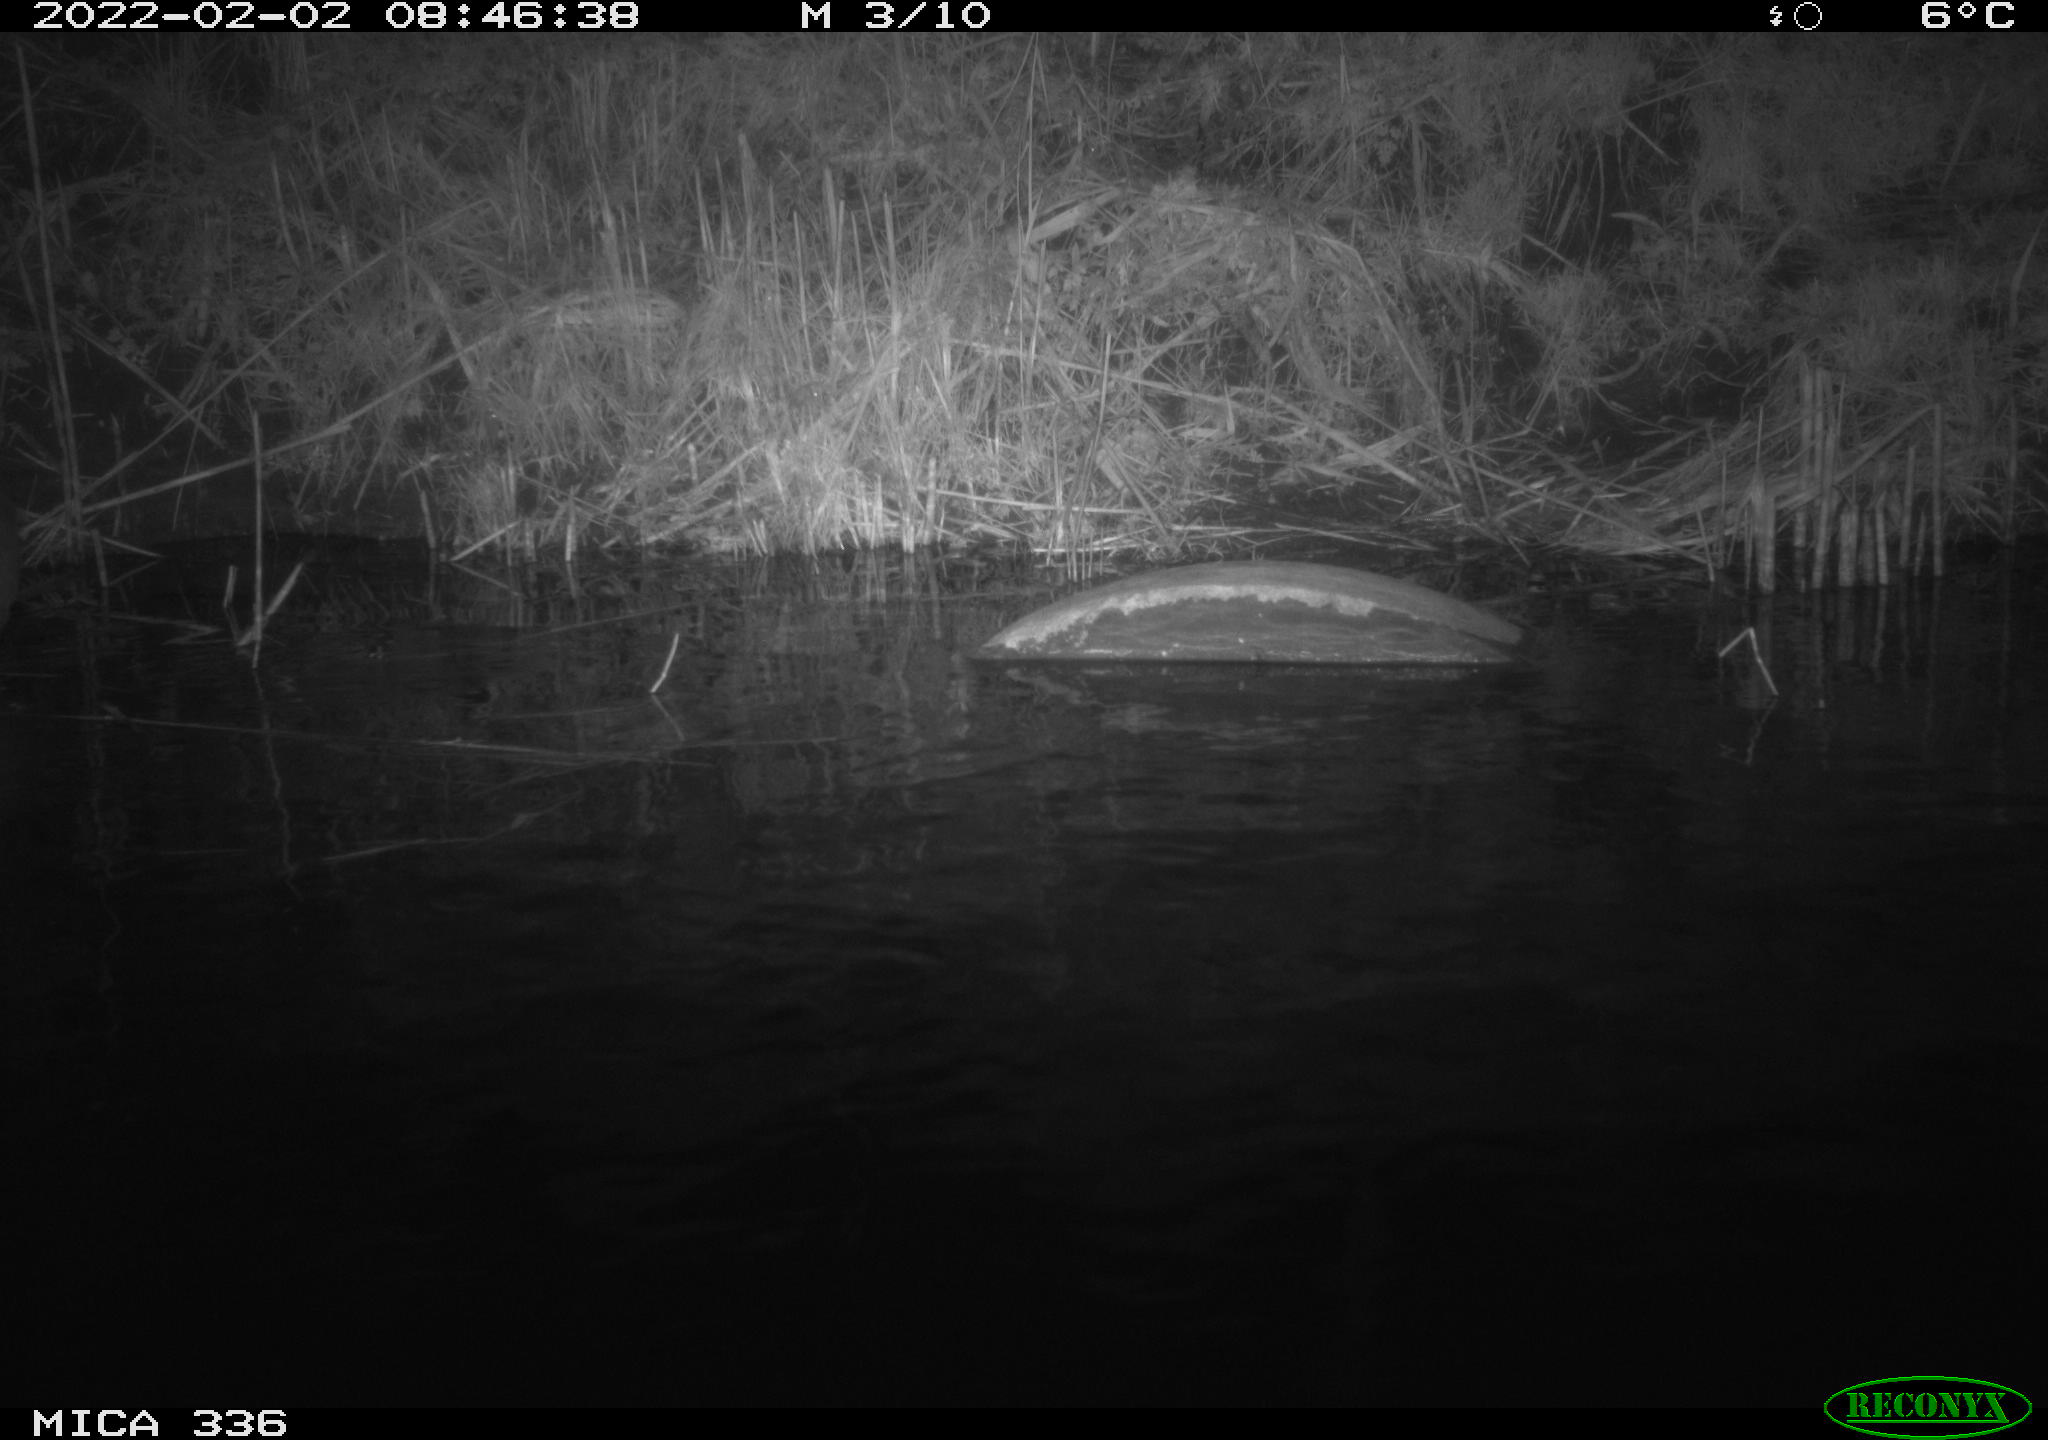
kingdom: Animalia
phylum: Chordata
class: Aves
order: Pelecaniformes
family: Ardeidae
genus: Ardea
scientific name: Ardea cinerea
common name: Grey heron
